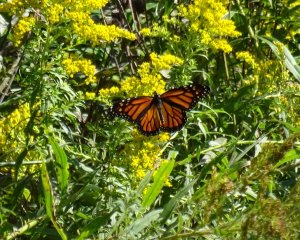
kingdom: Animalia
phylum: Arthropoda
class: Insecta
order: Lepidoptera
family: Nymphalidae
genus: Danaus
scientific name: Danaus plexippus
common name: Monarch
